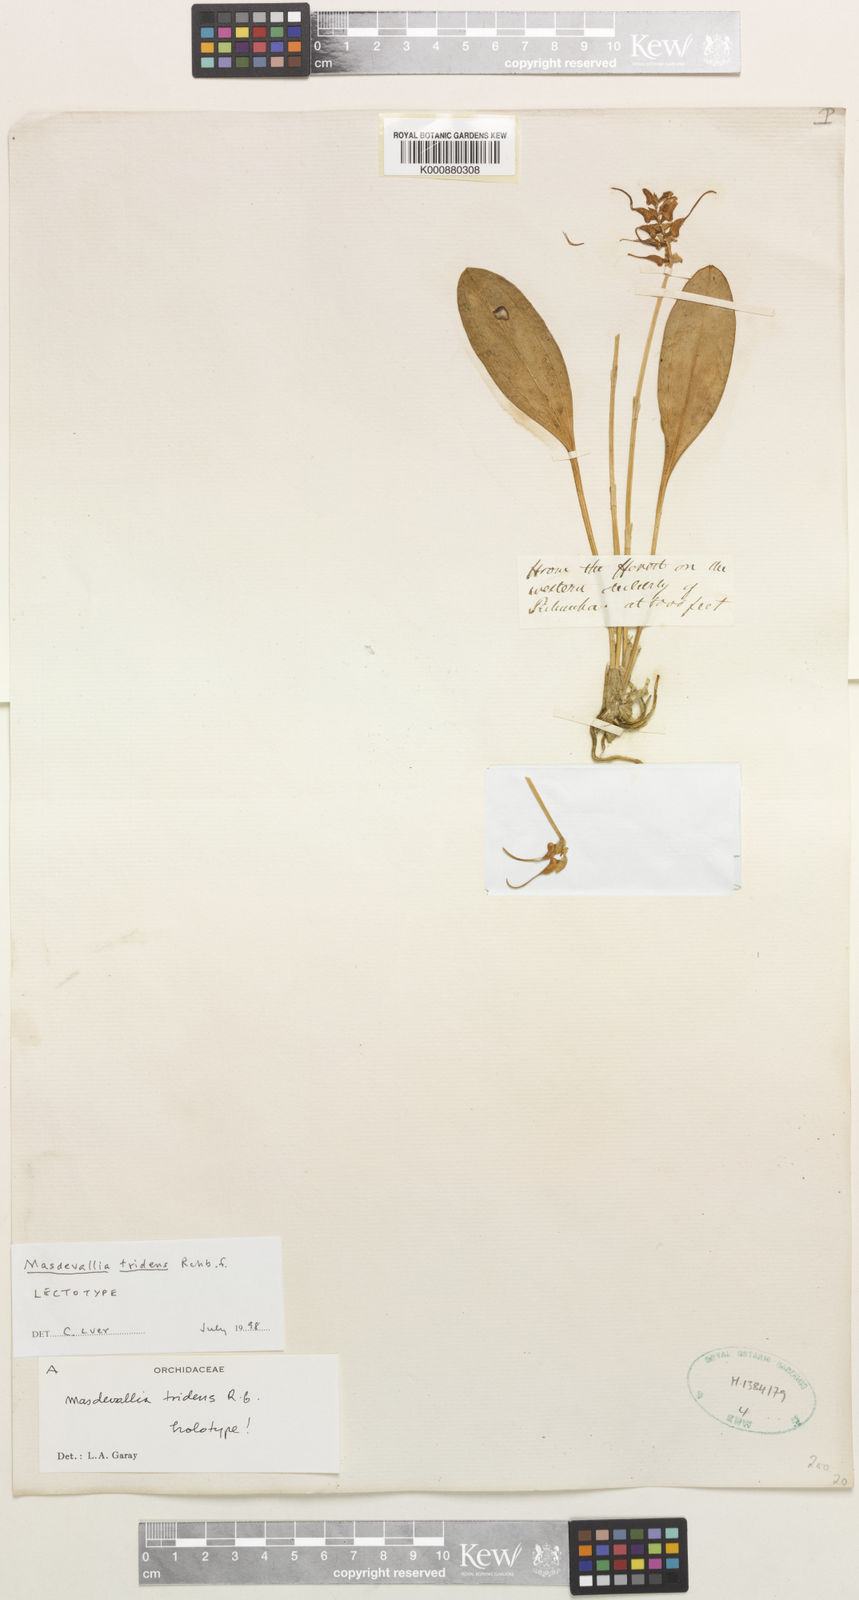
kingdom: Plantae
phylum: Tracheophyta
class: Liliopsida
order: Asparagales
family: Orchidaceae
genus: Masdevallia
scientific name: Masdevallia tridens
